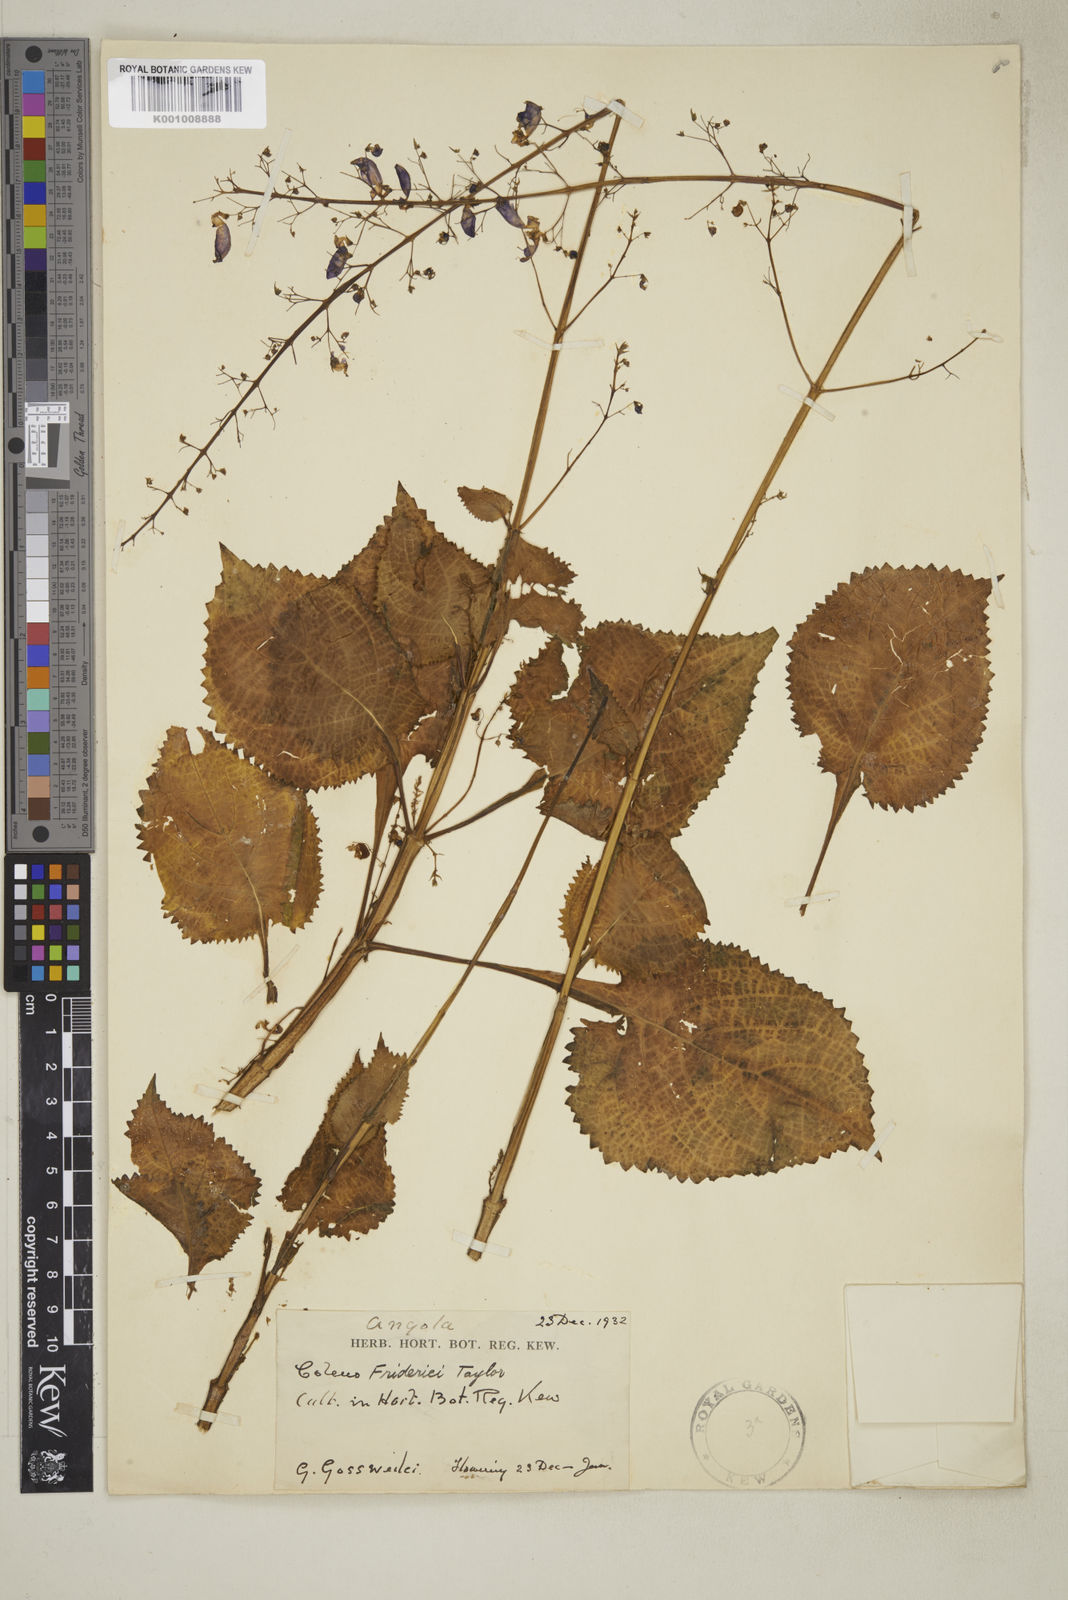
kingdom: Plantae
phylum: Tracheophyta
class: Magnoliopsida
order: Lamiales
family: Lamiaceae
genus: Plectranthus
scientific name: Plectranthus
